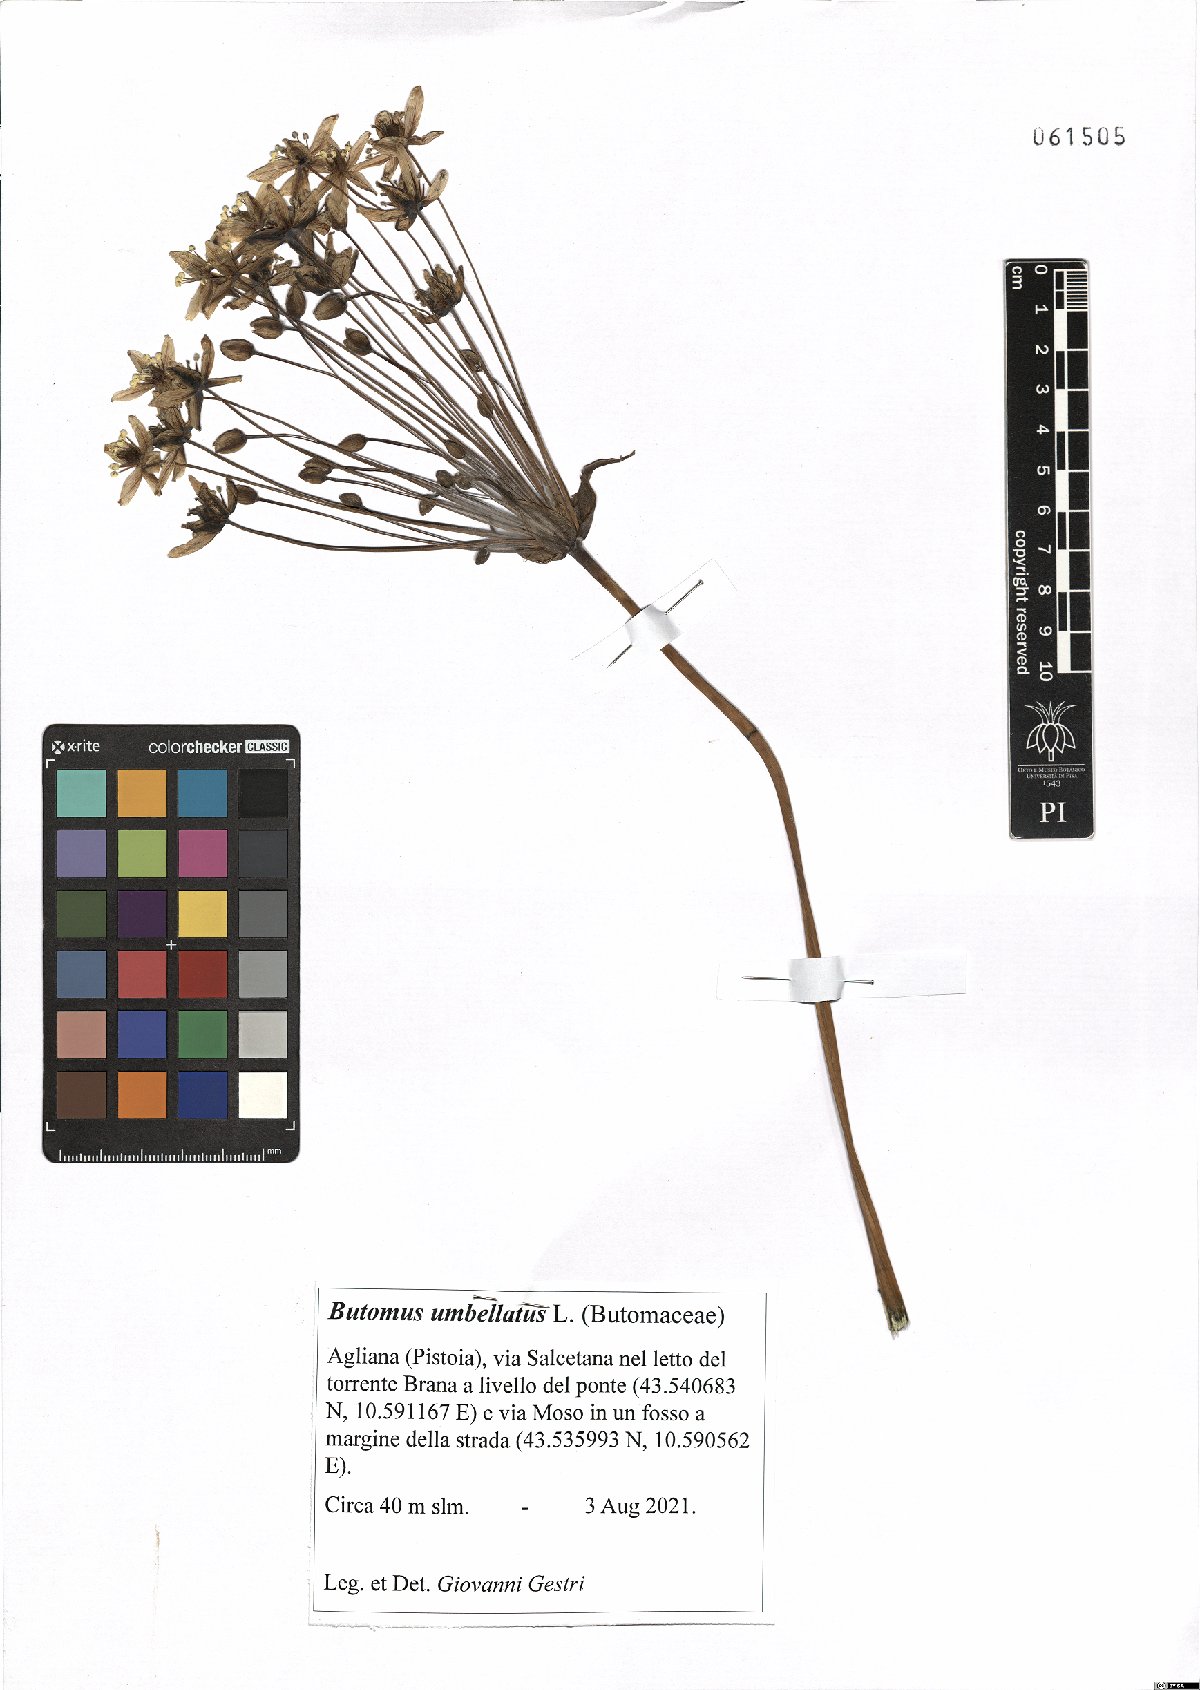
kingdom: Plantae
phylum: Tracheophyta
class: Liliopsida
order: Alismatales
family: Butomaceae
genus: Butomus
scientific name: Butomus umbellatus
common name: Flowering-rush
